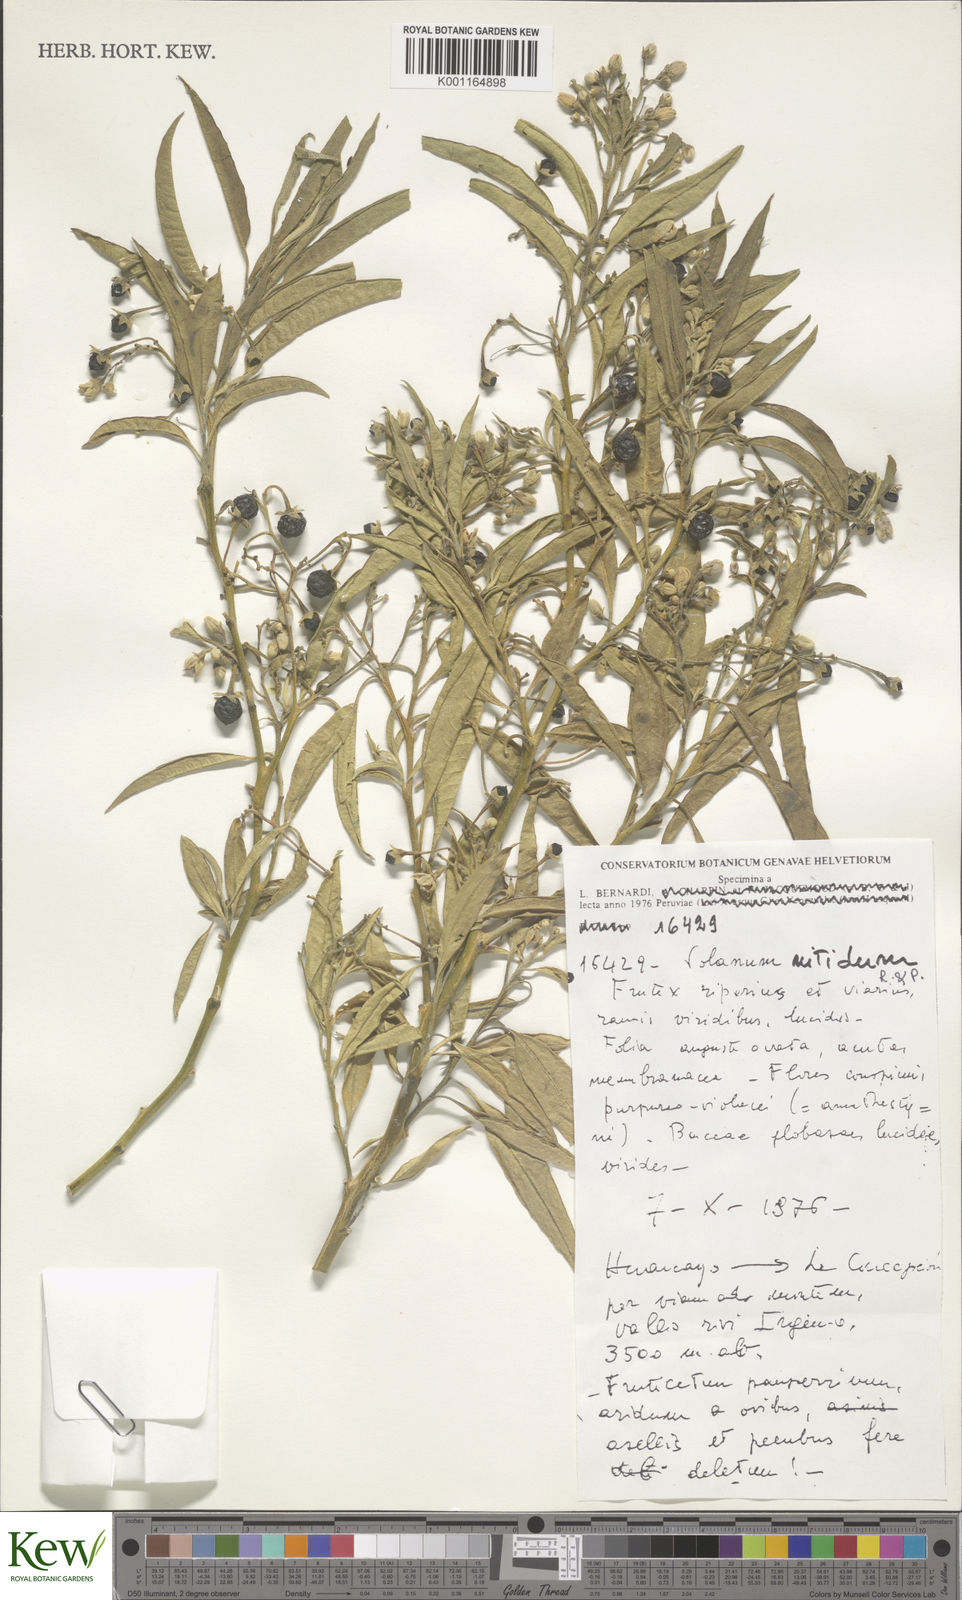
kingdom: Plantae
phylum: Tracheophyta
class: Magnoliopsida
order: Solanales
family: Solanaceae
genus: Solanum
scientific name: Solanum nitidum
